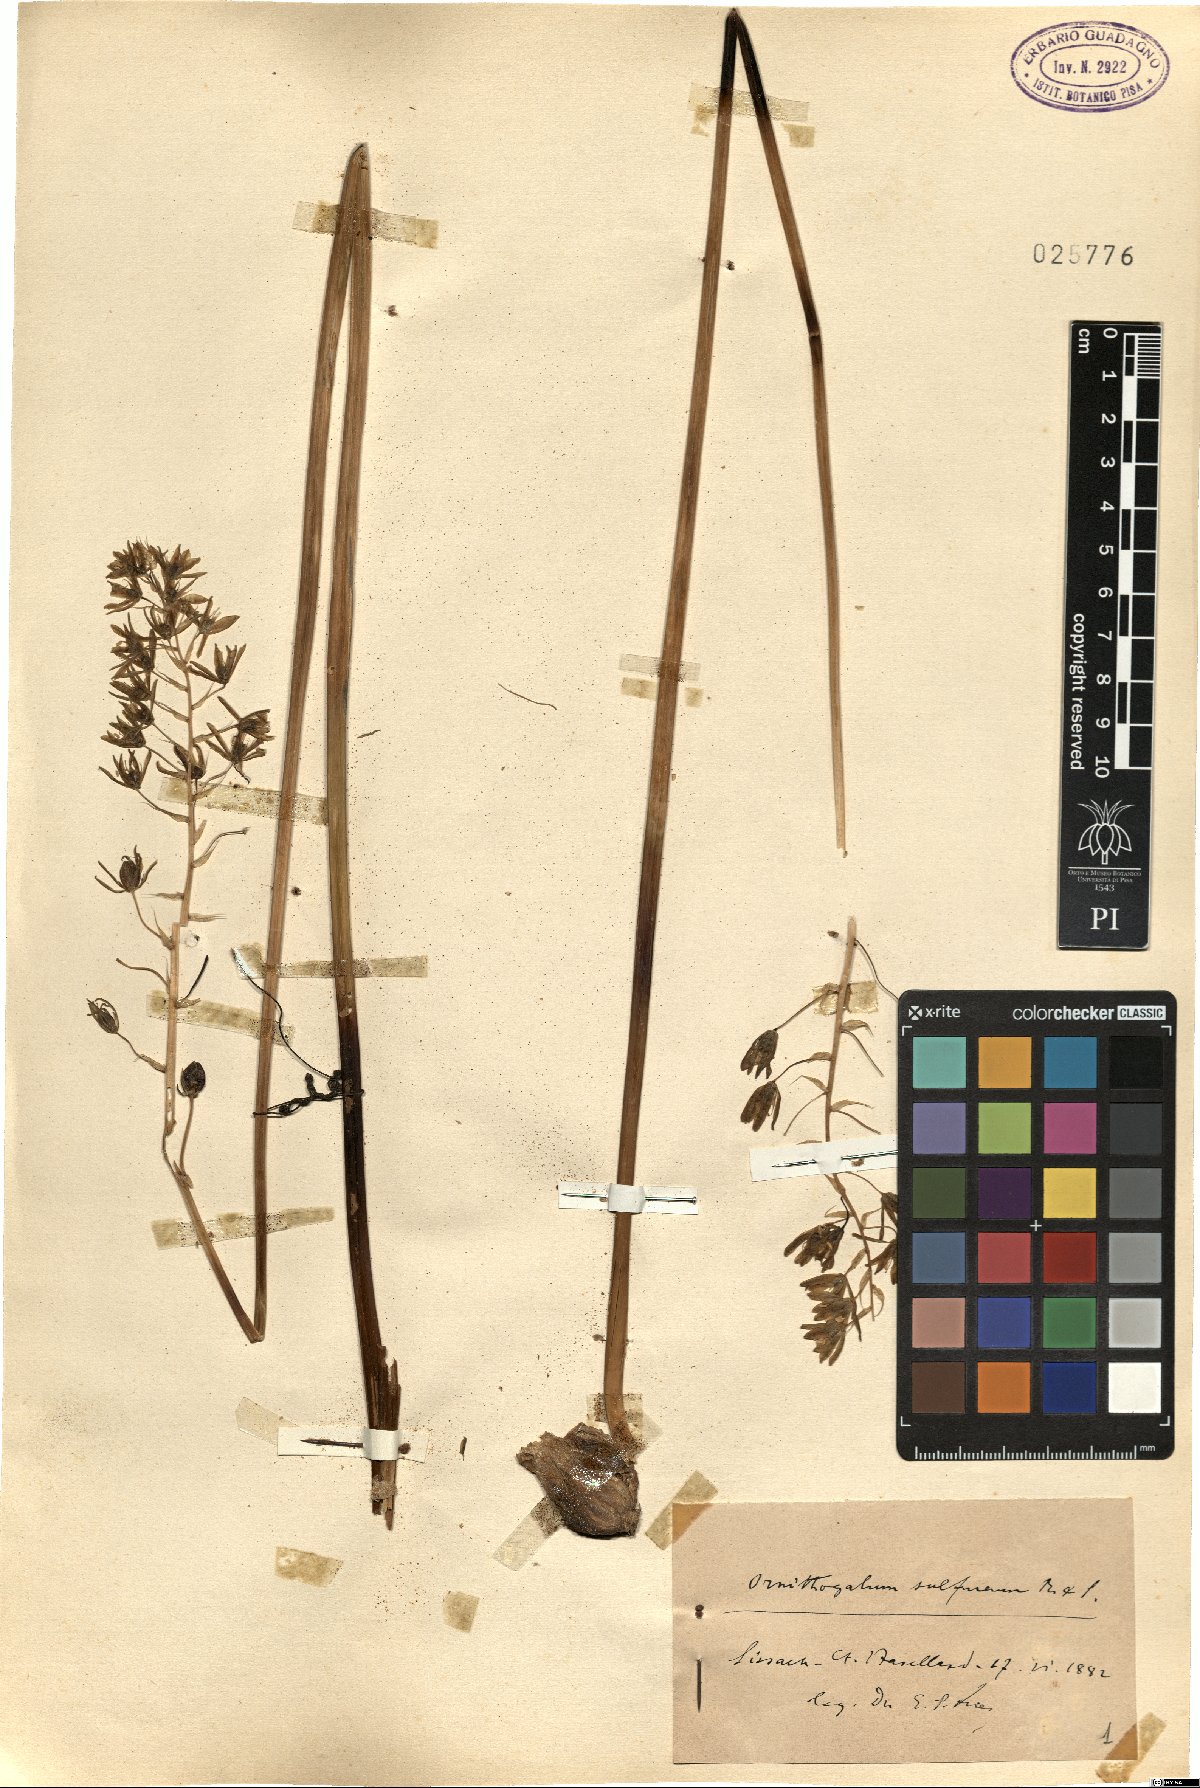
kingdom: Plantae
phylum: Tracheophyta
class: Liliopsida
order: Asparagales
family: Asparagaceae
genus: Ornithogalum
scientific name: Ornithogalum sulfureum
